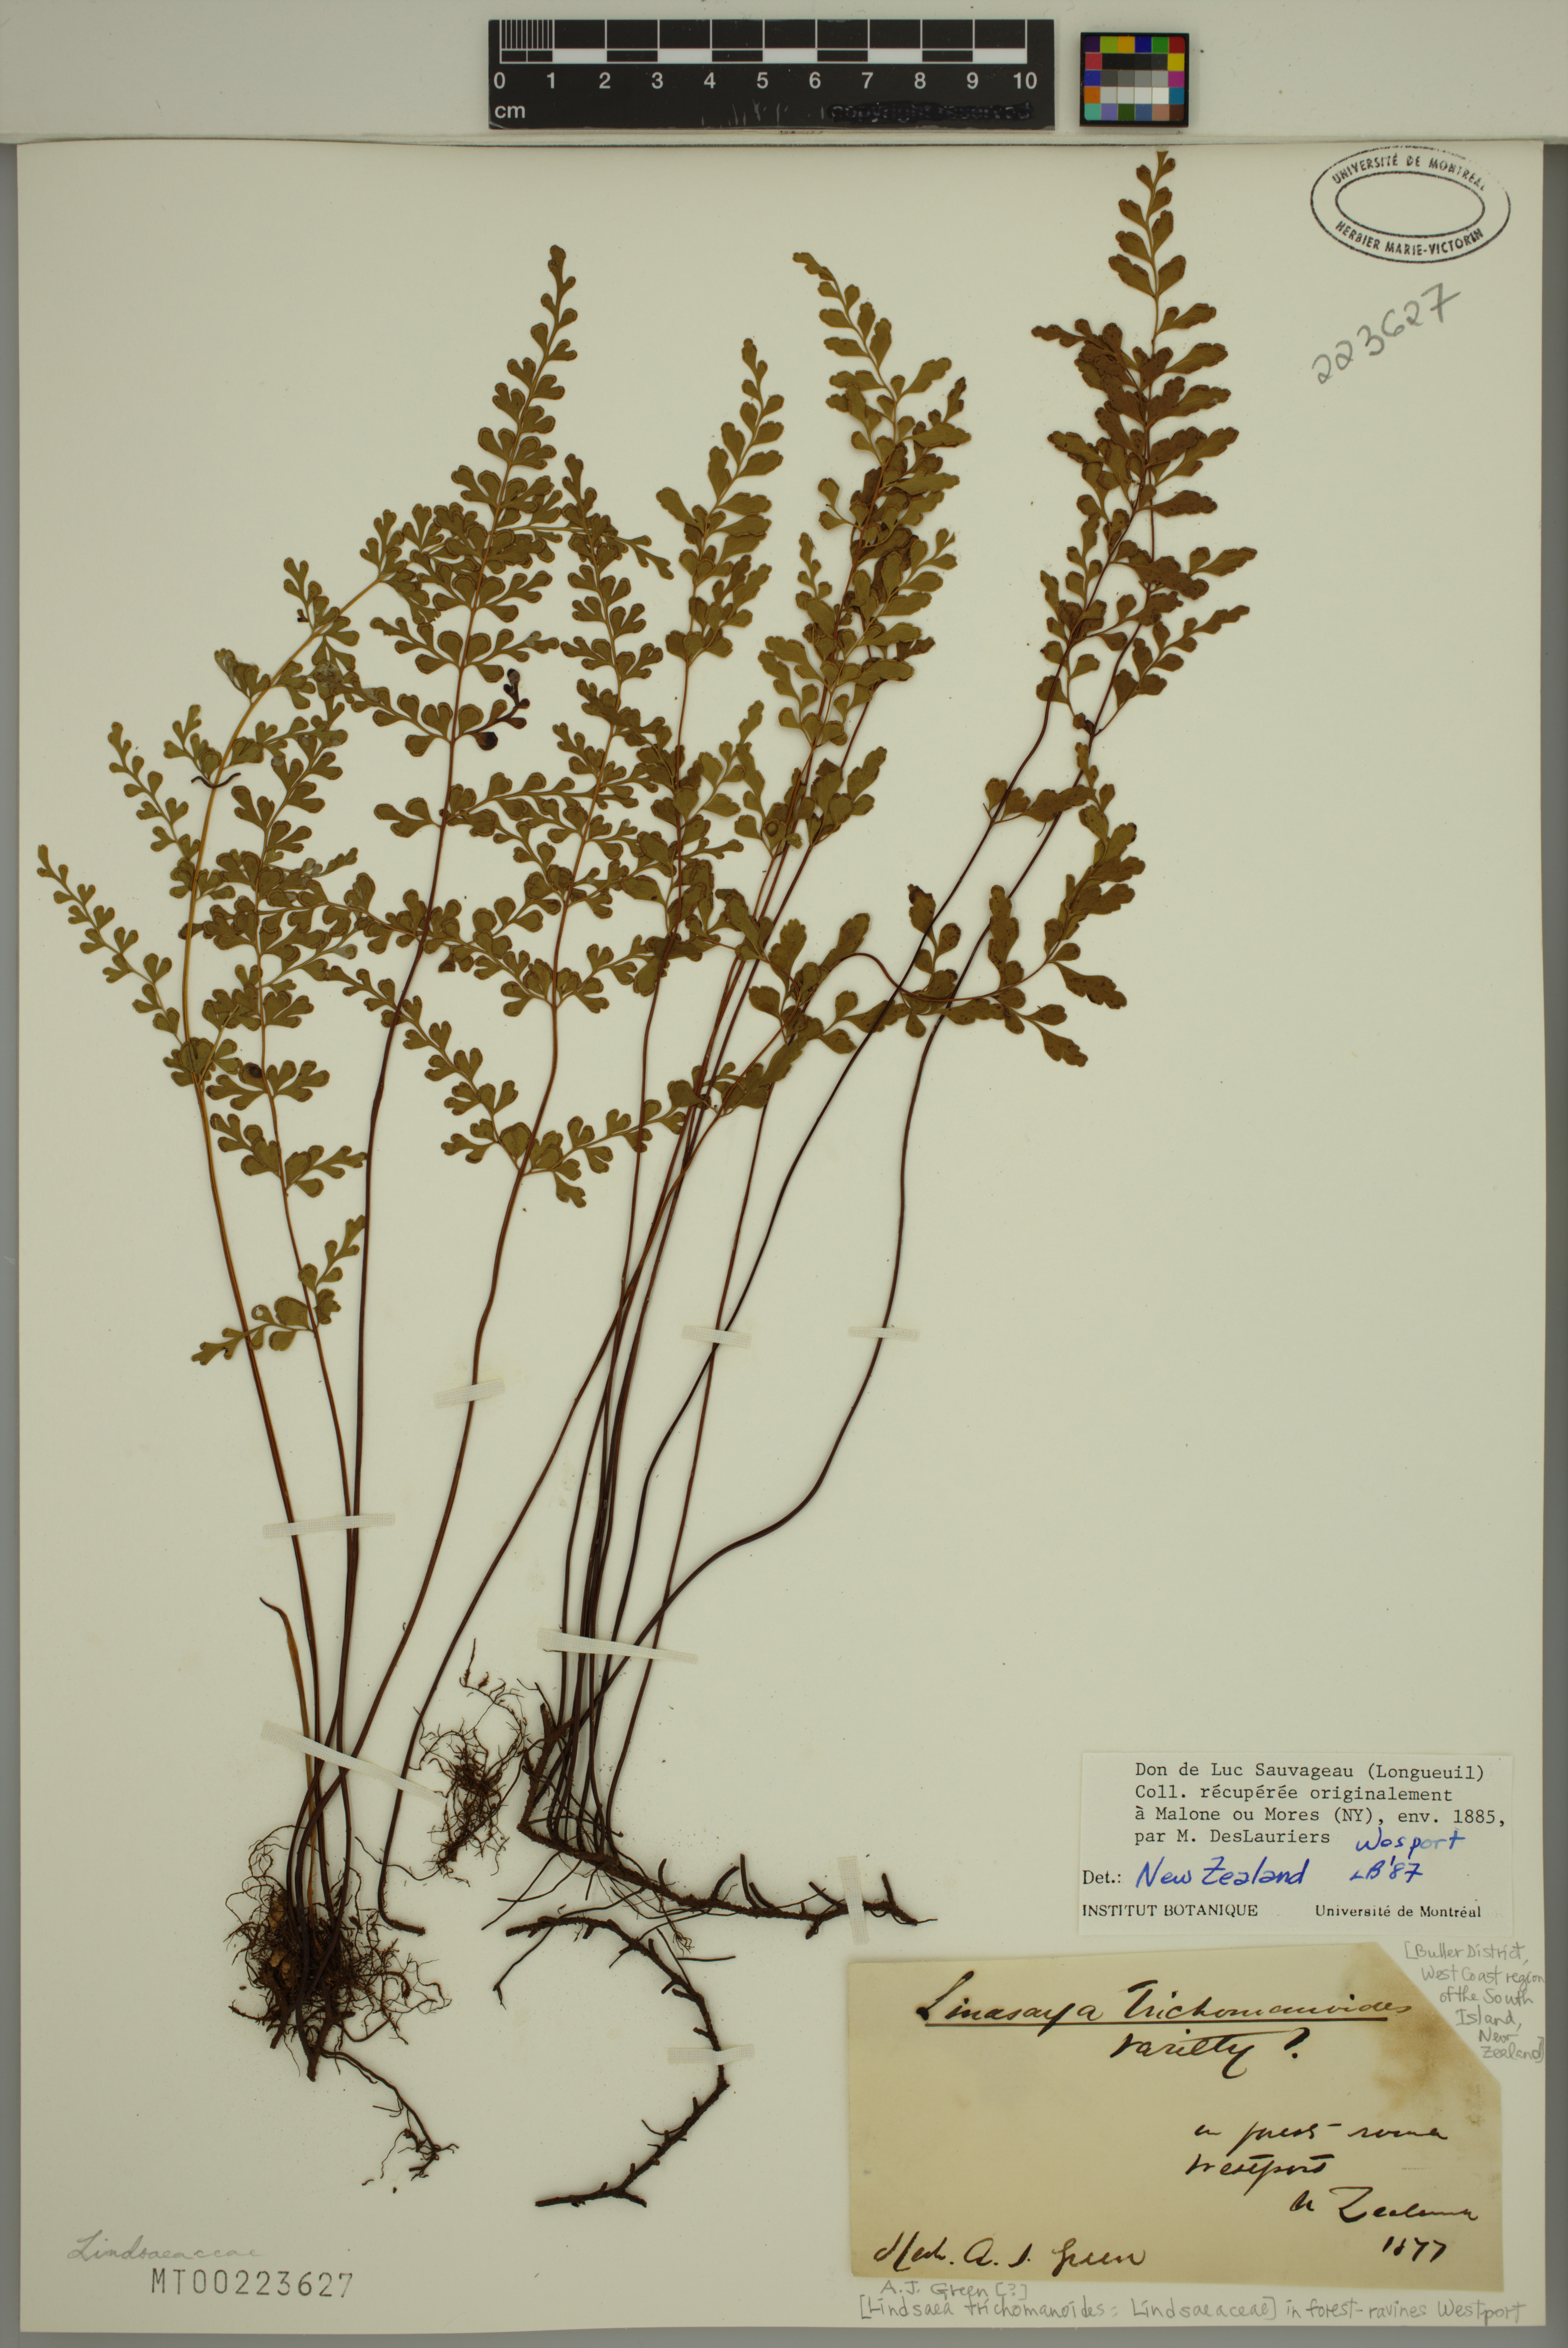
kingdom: Plantae
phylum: Tracheophyta
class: Polypodiopsida
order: Polypodiales
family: Lindsaeaceae
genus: Lindsaea
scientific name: Lindsaea trichomanoides
